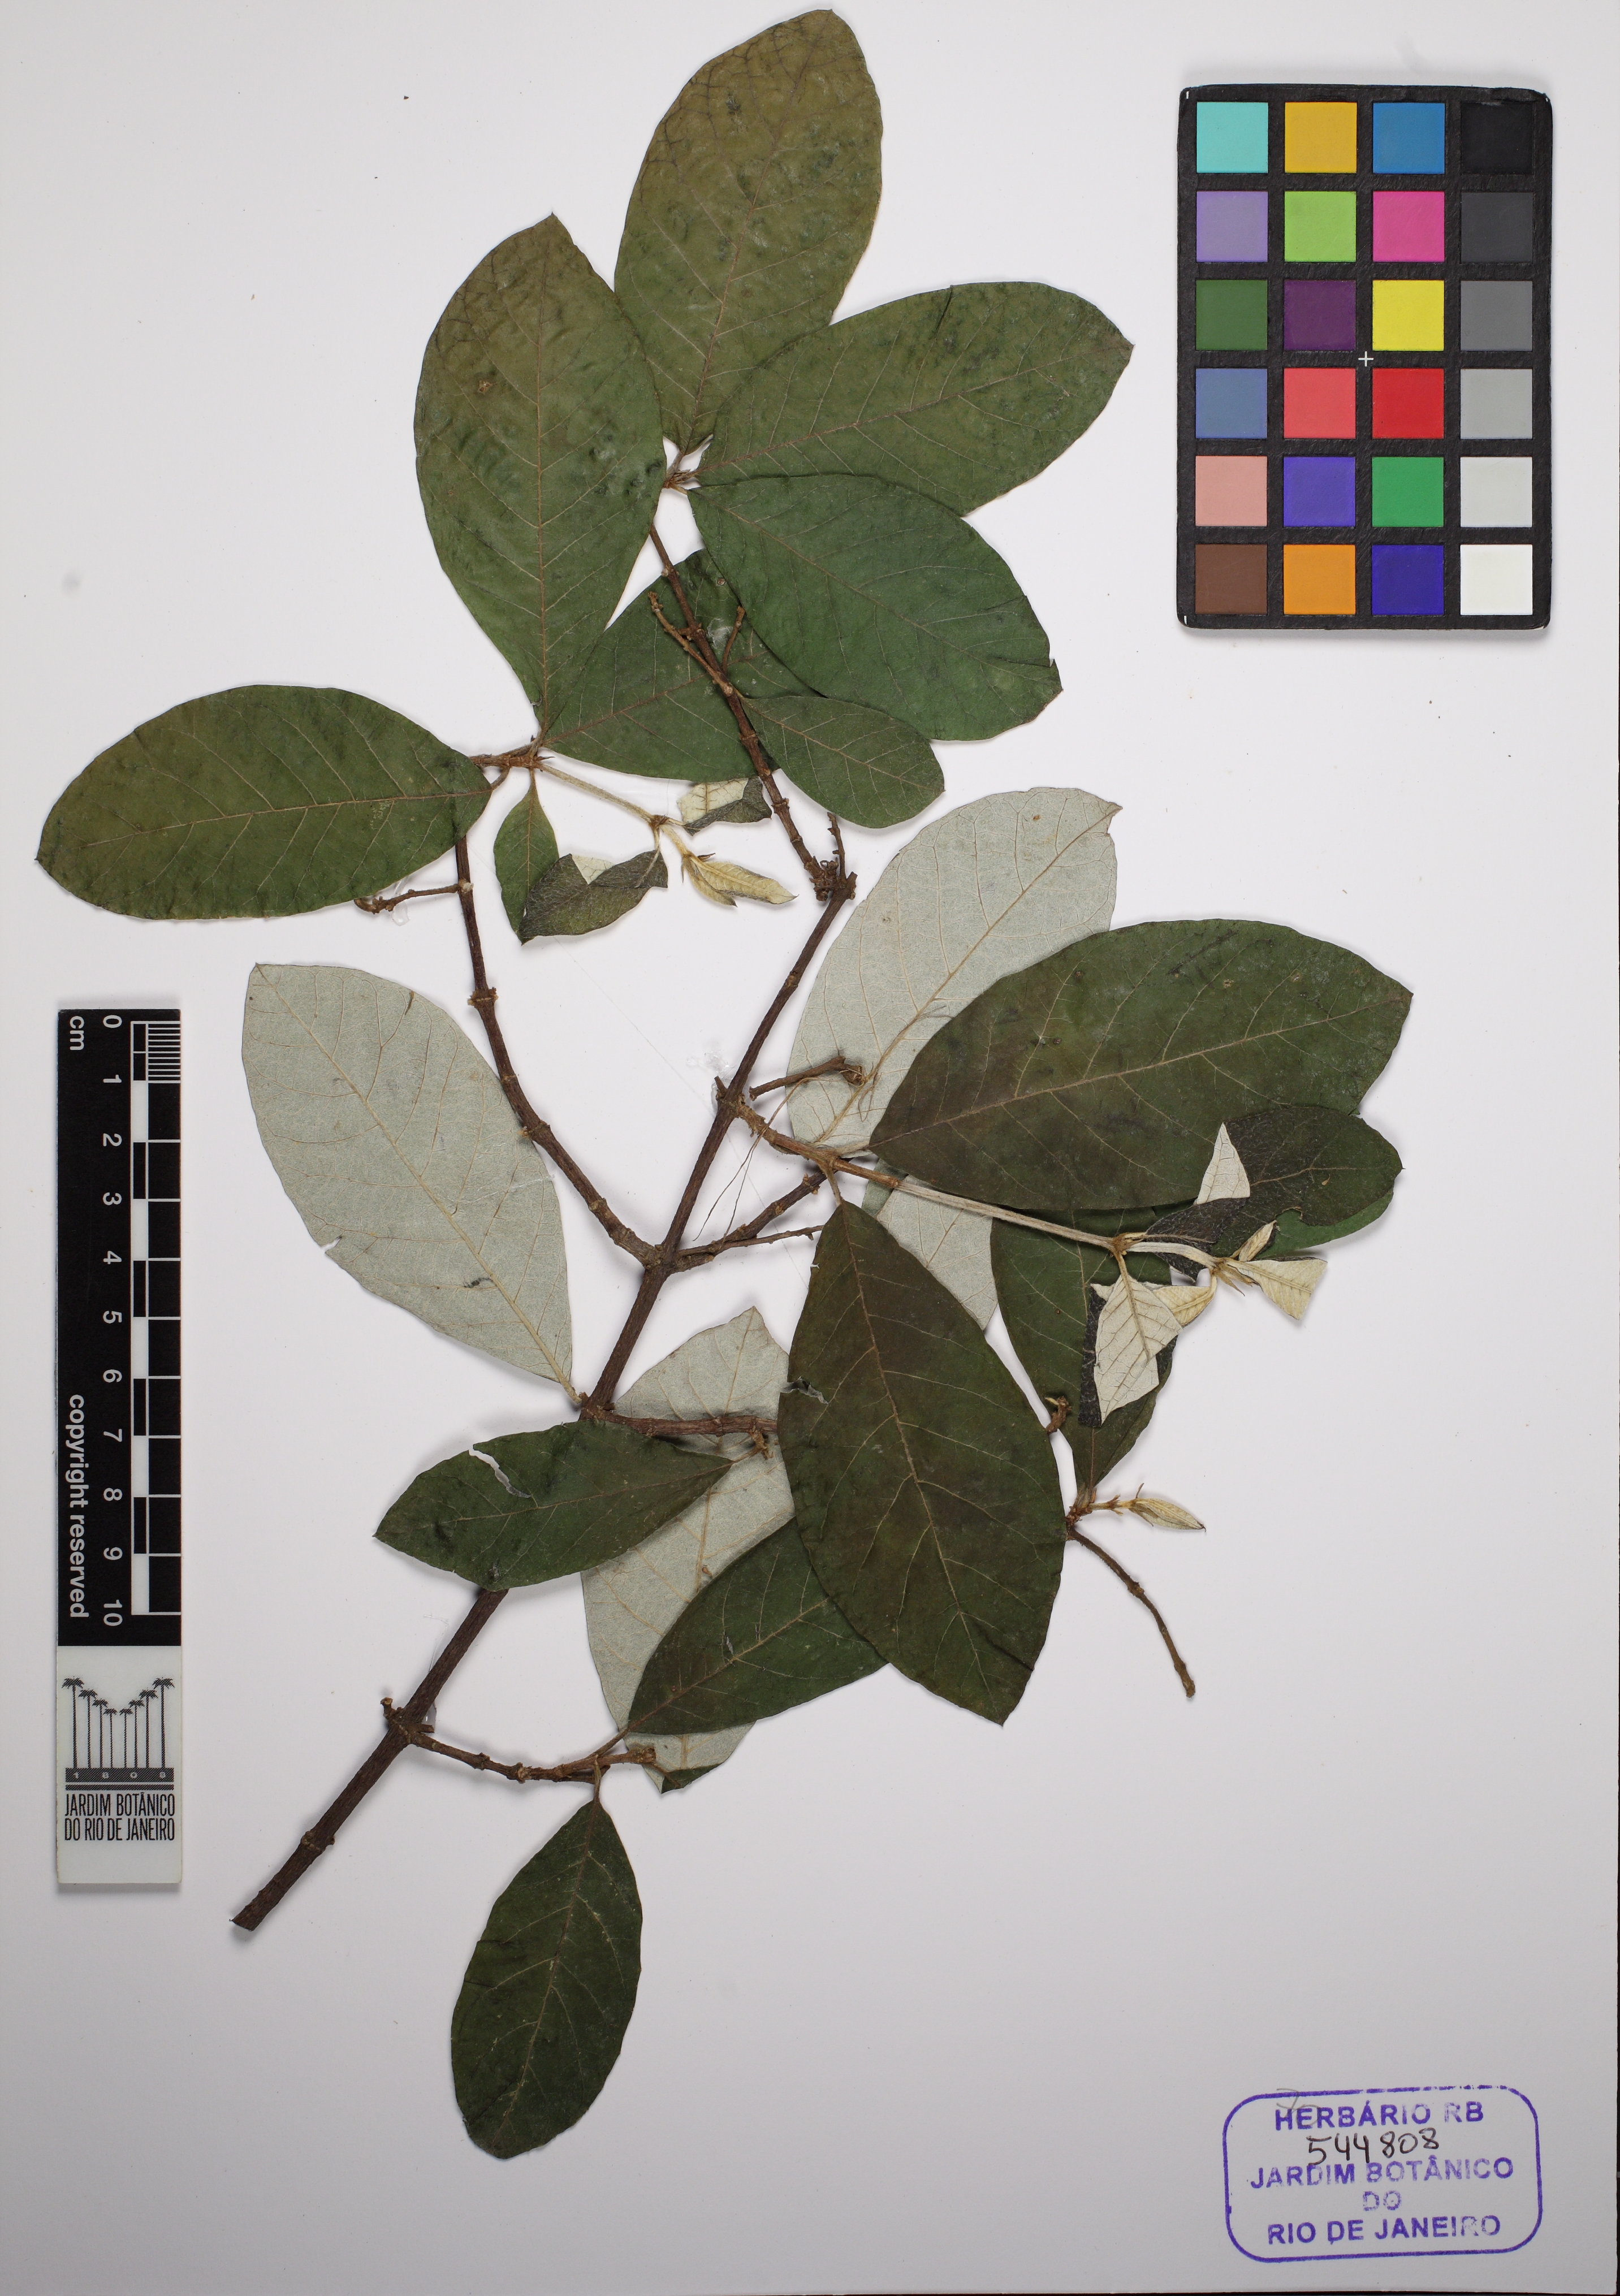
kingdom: Plantae
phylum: Tracheophyta
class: Magnoliopsida
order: Malpighiales
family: Trigoniaceae
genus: Trigonia
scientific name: Trigonia floccosa
